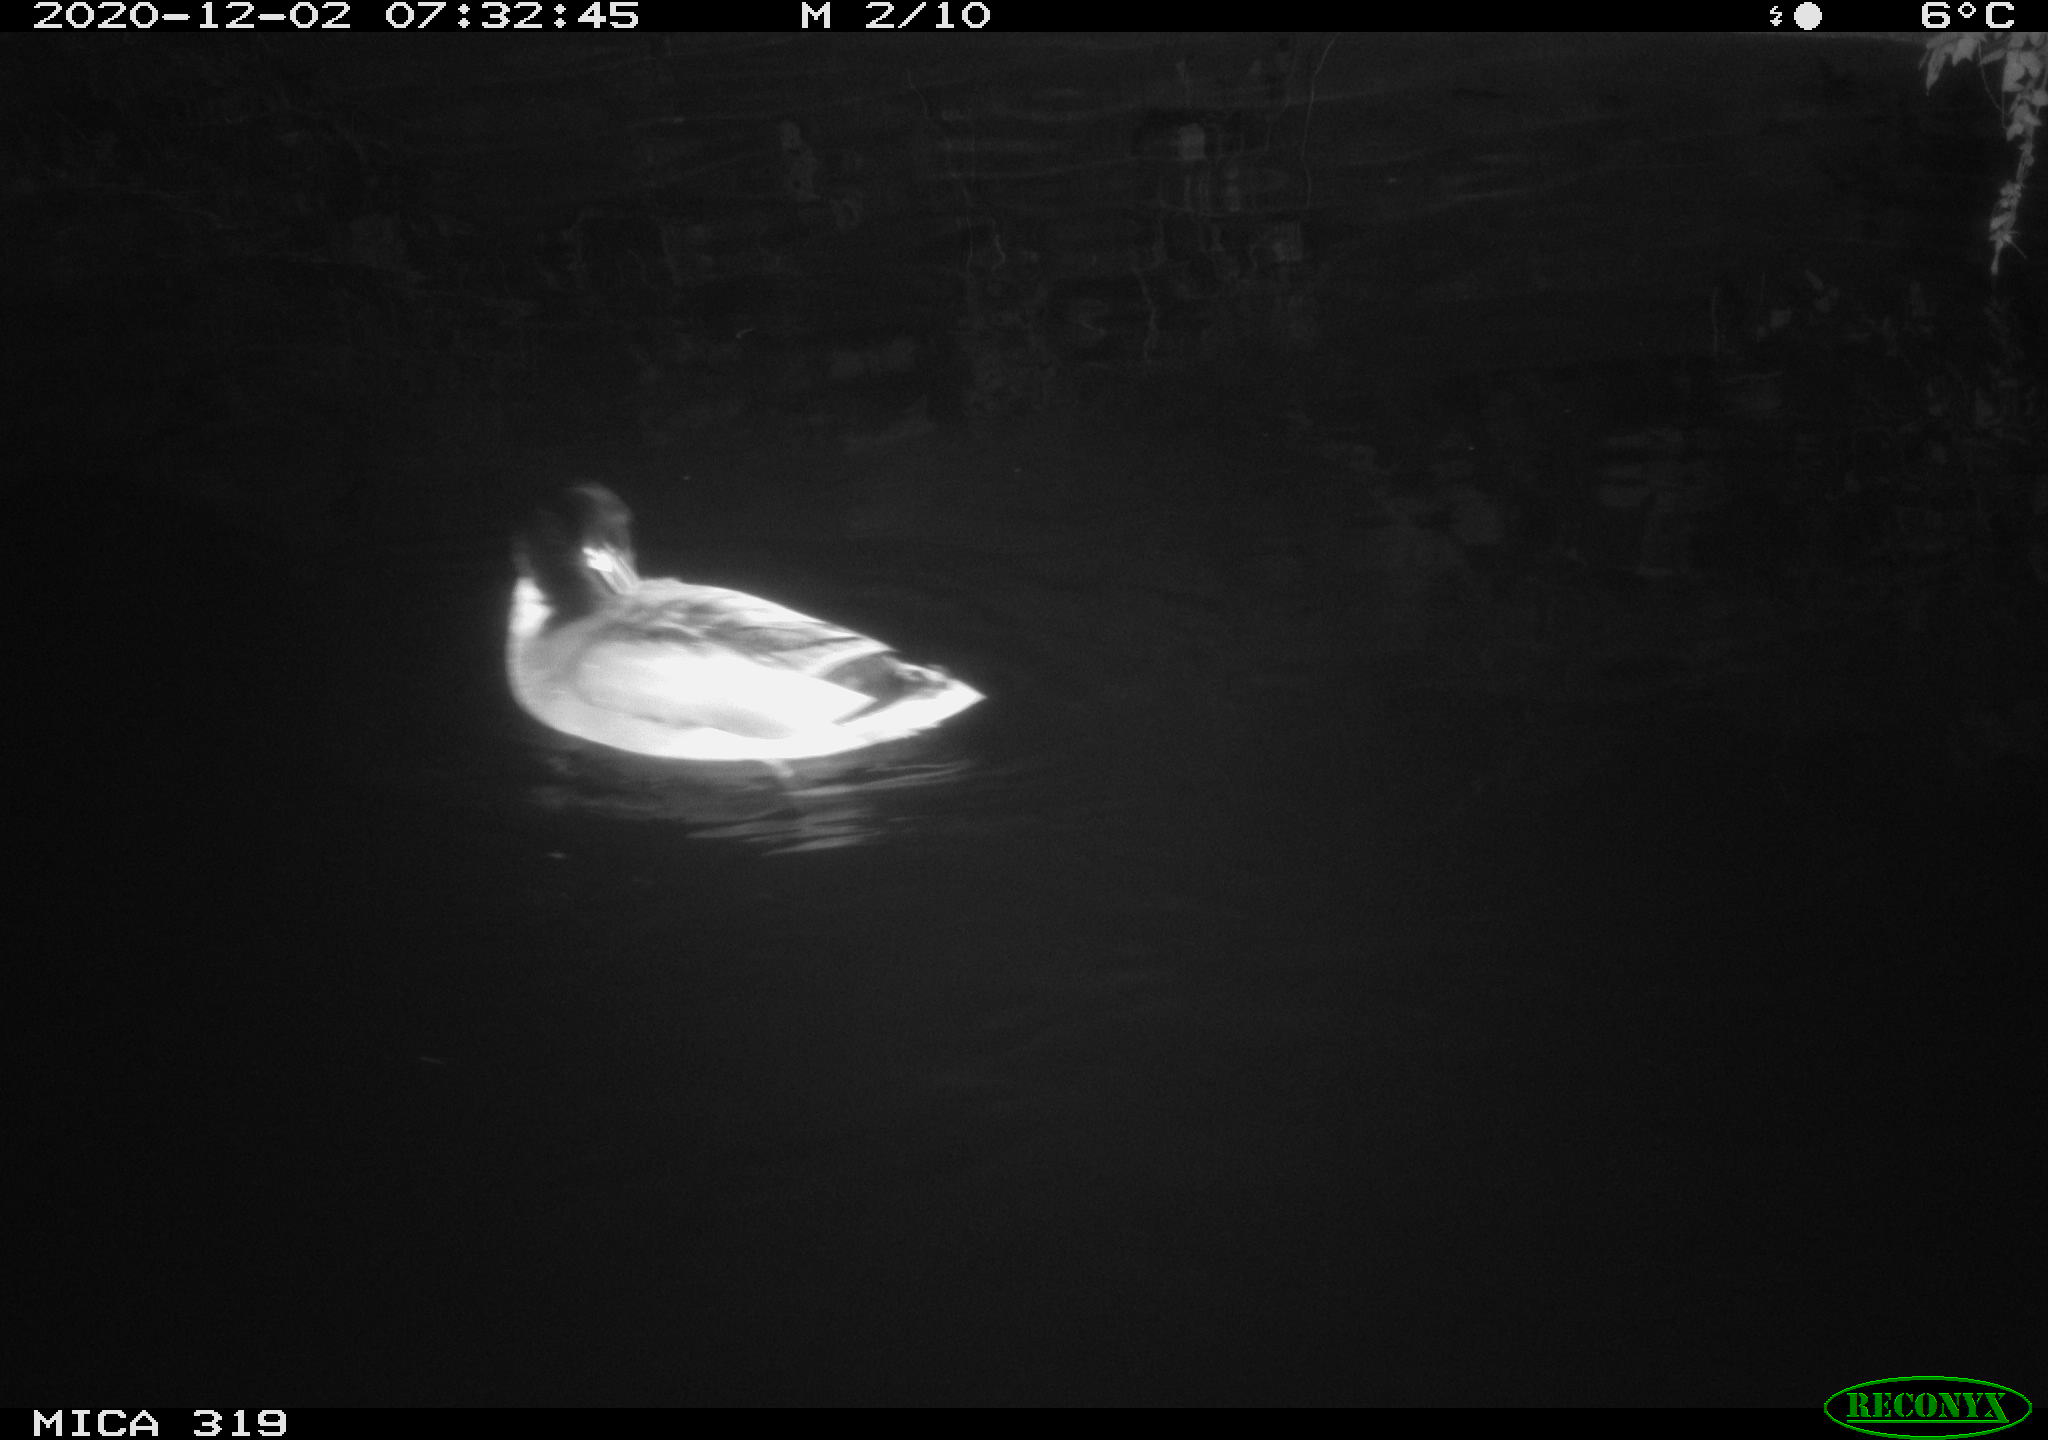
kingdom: Animalia
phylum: Chordata
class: Aves
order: Anseriformes
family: Anatidae
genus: Anas
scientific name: Anas platyrhynchos
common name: Mallard
